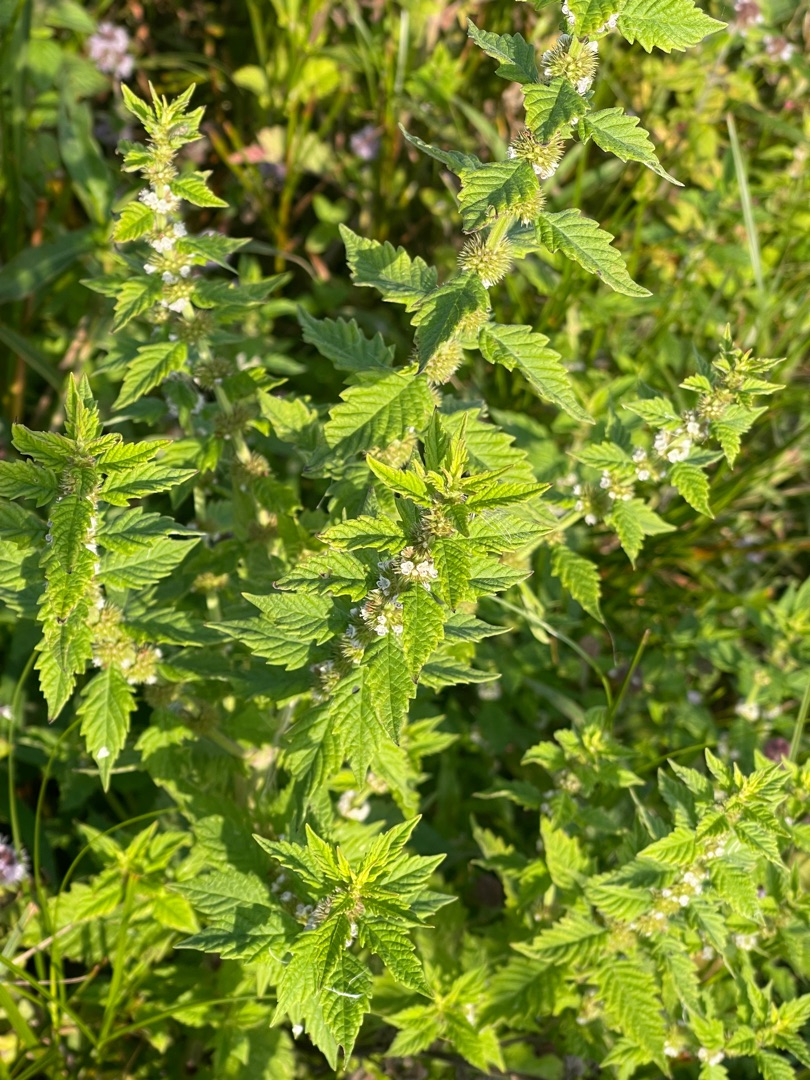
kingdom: Plantae
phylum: Tracheophyta
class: Magnoliopsida
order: Lamiales
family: Lamiaceae
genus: Lycopus
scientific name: Lycopus europaeus
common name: Sværtevæld
